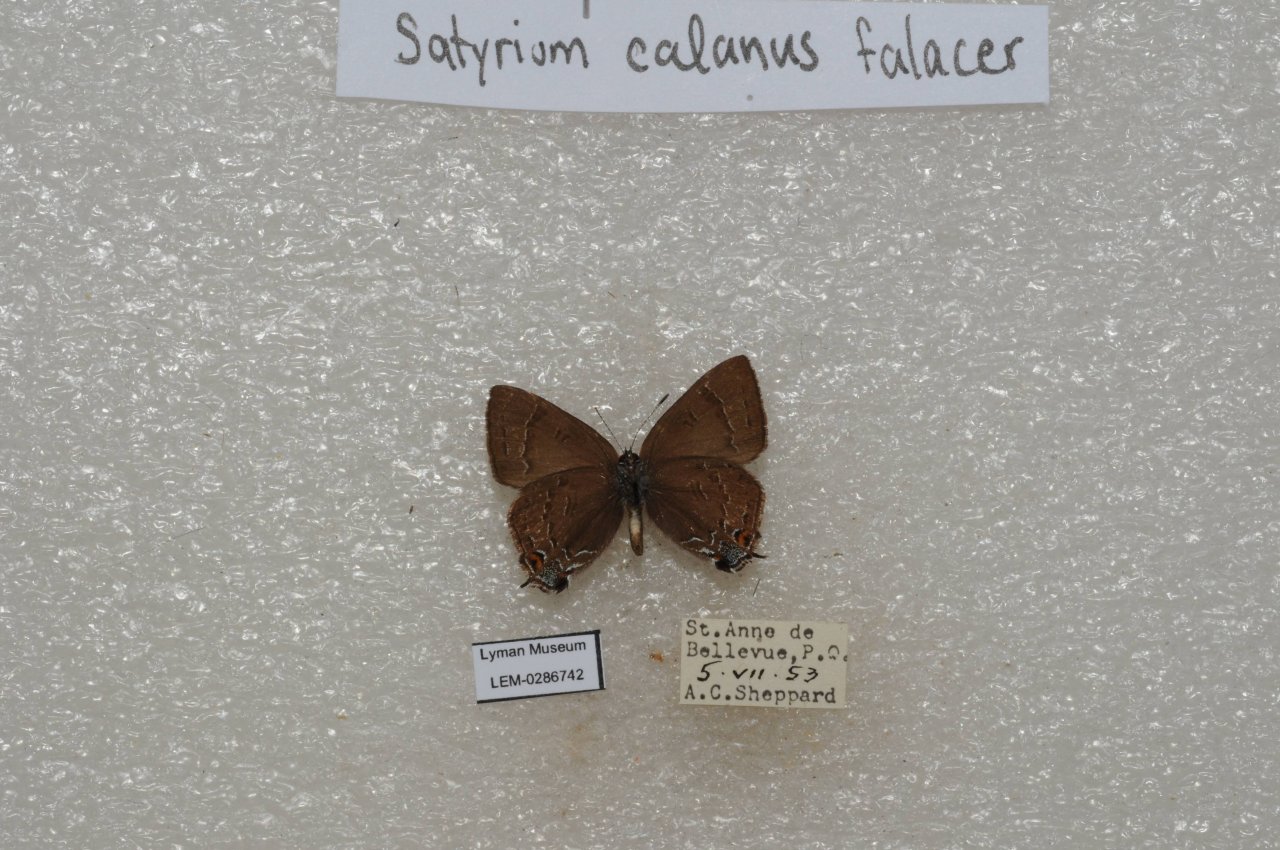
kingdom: Animalia
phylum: Arthropoda
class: Insecta
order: Lepidoptera
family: Lycaenidae
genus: Satyrium
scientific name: Satyrium calanus
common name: Banded Hairstreak
